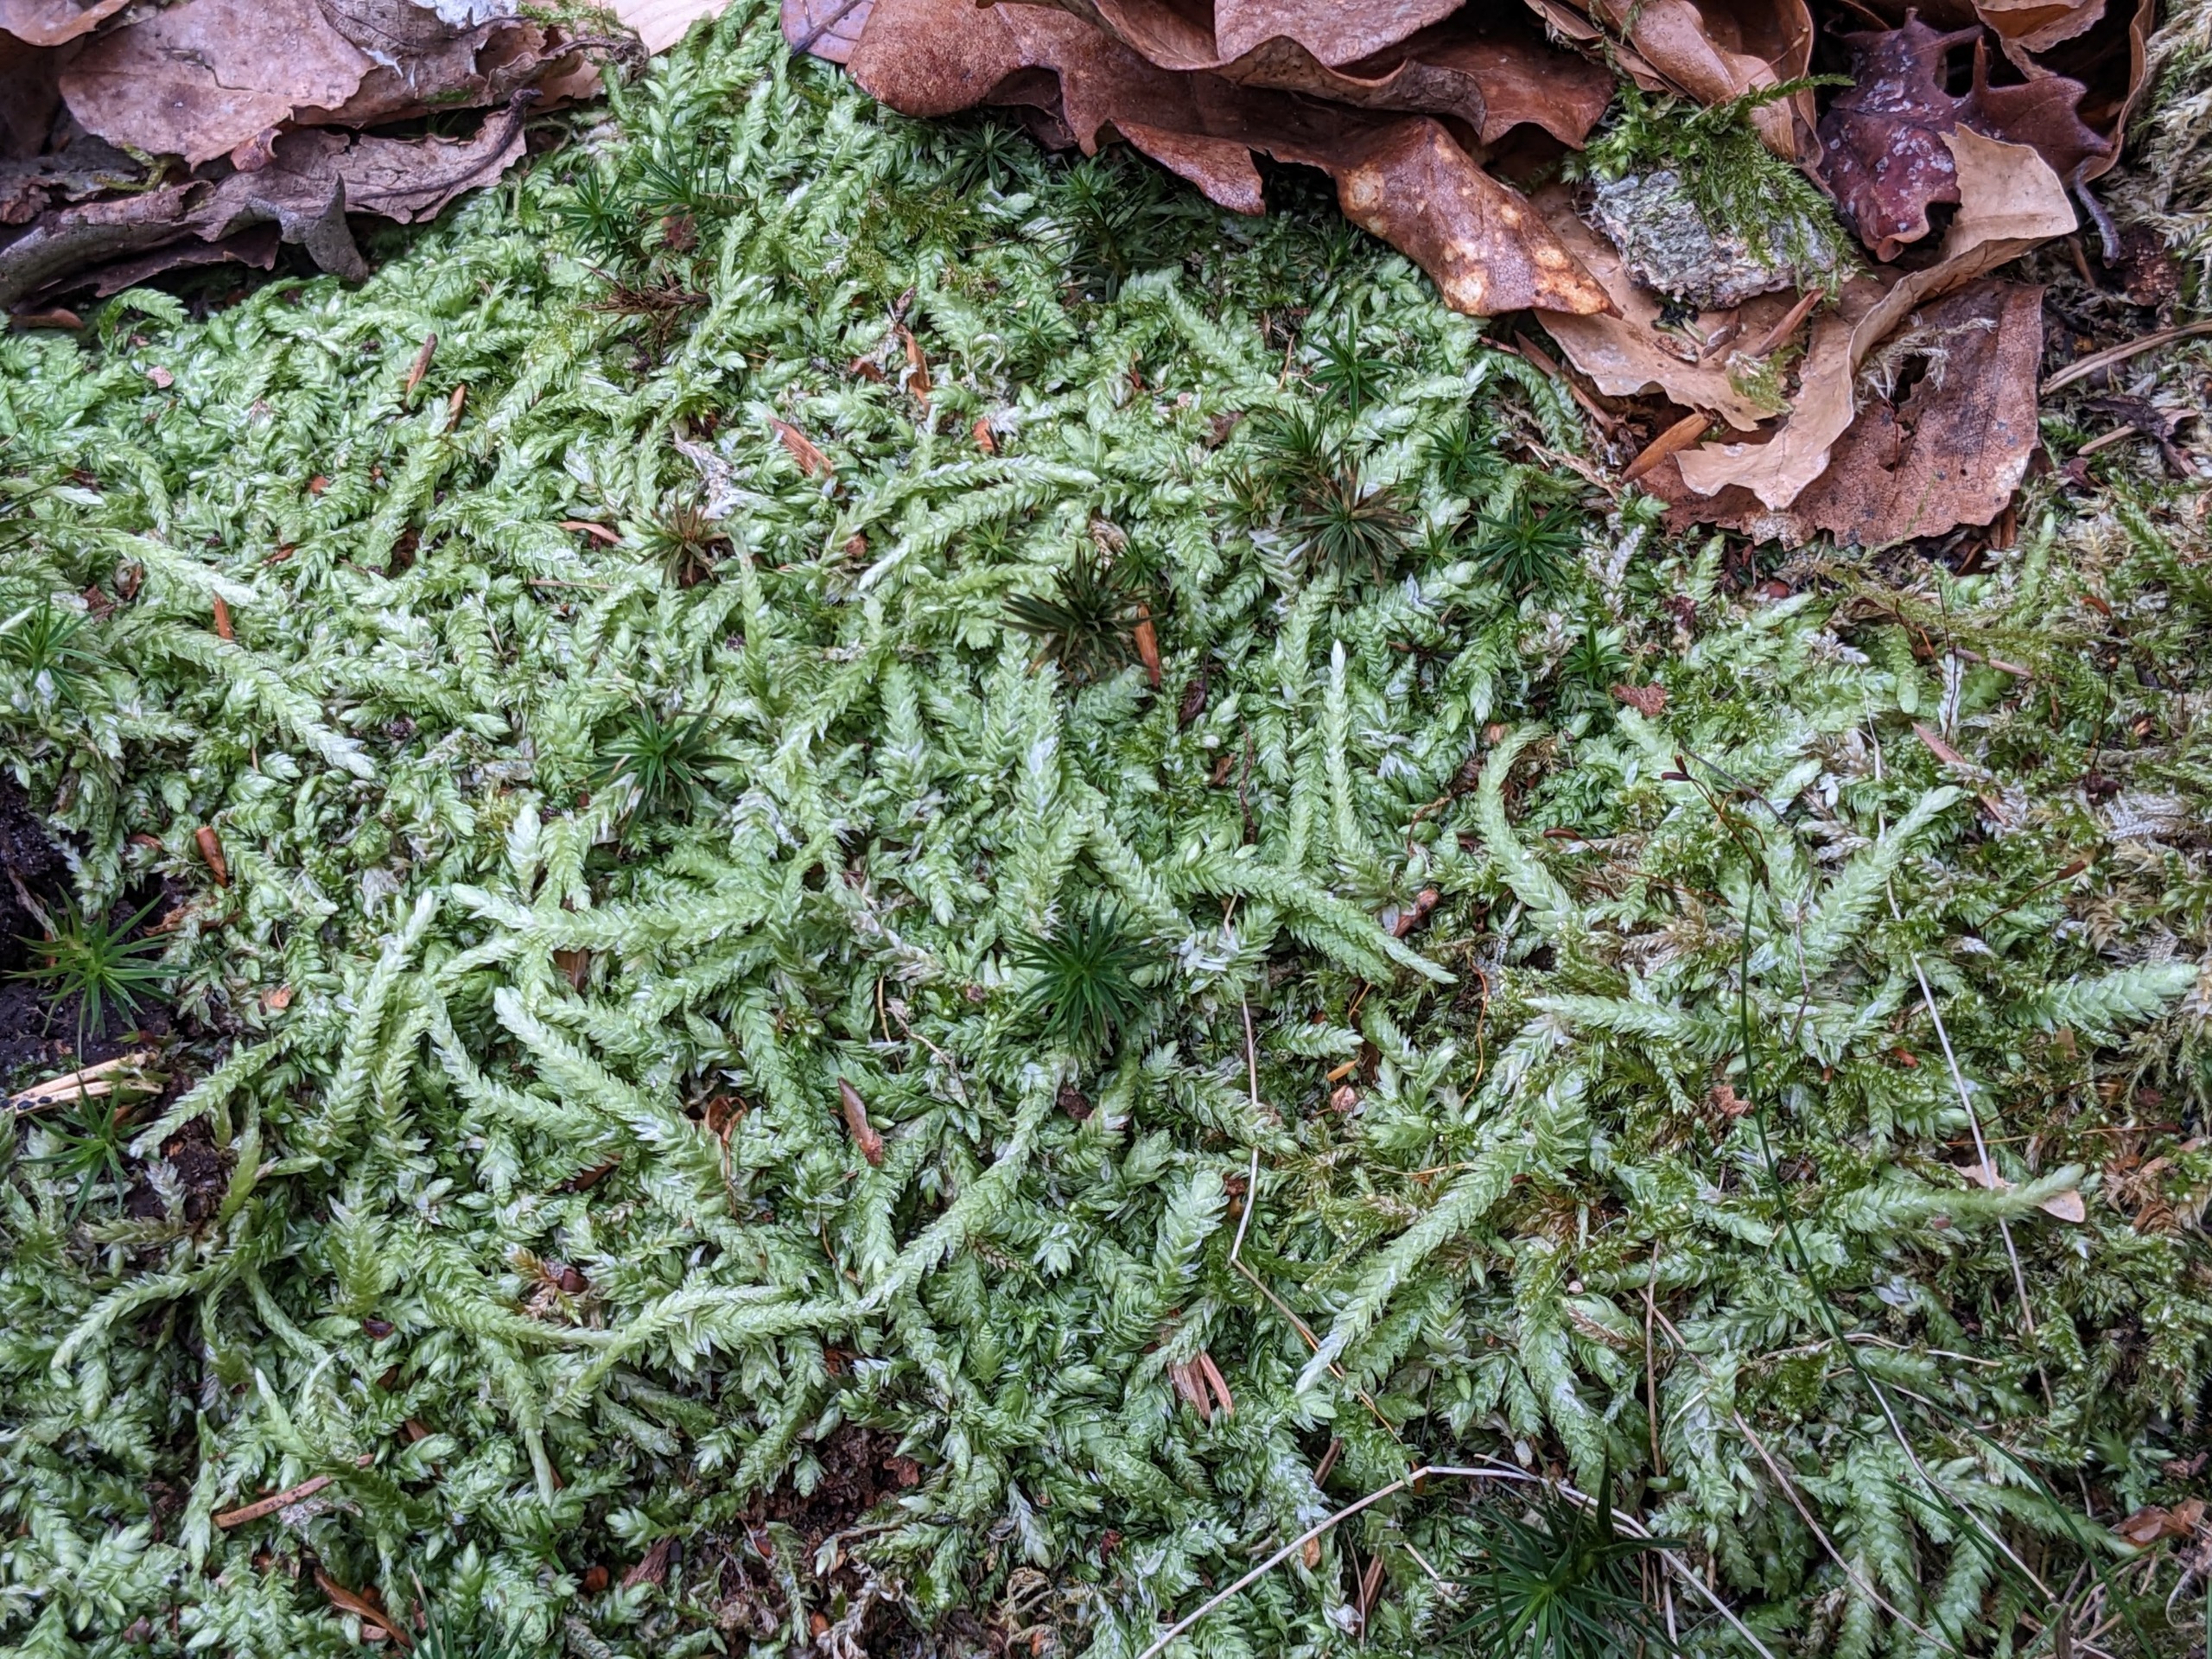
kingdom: Plantae
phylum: Bryophyta
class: Bryopsida
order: Hypnales
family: Plagiotheciaceae
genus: Plagiothecium
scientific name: Plagiothecium undulatum
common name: Bølget tæppemos
